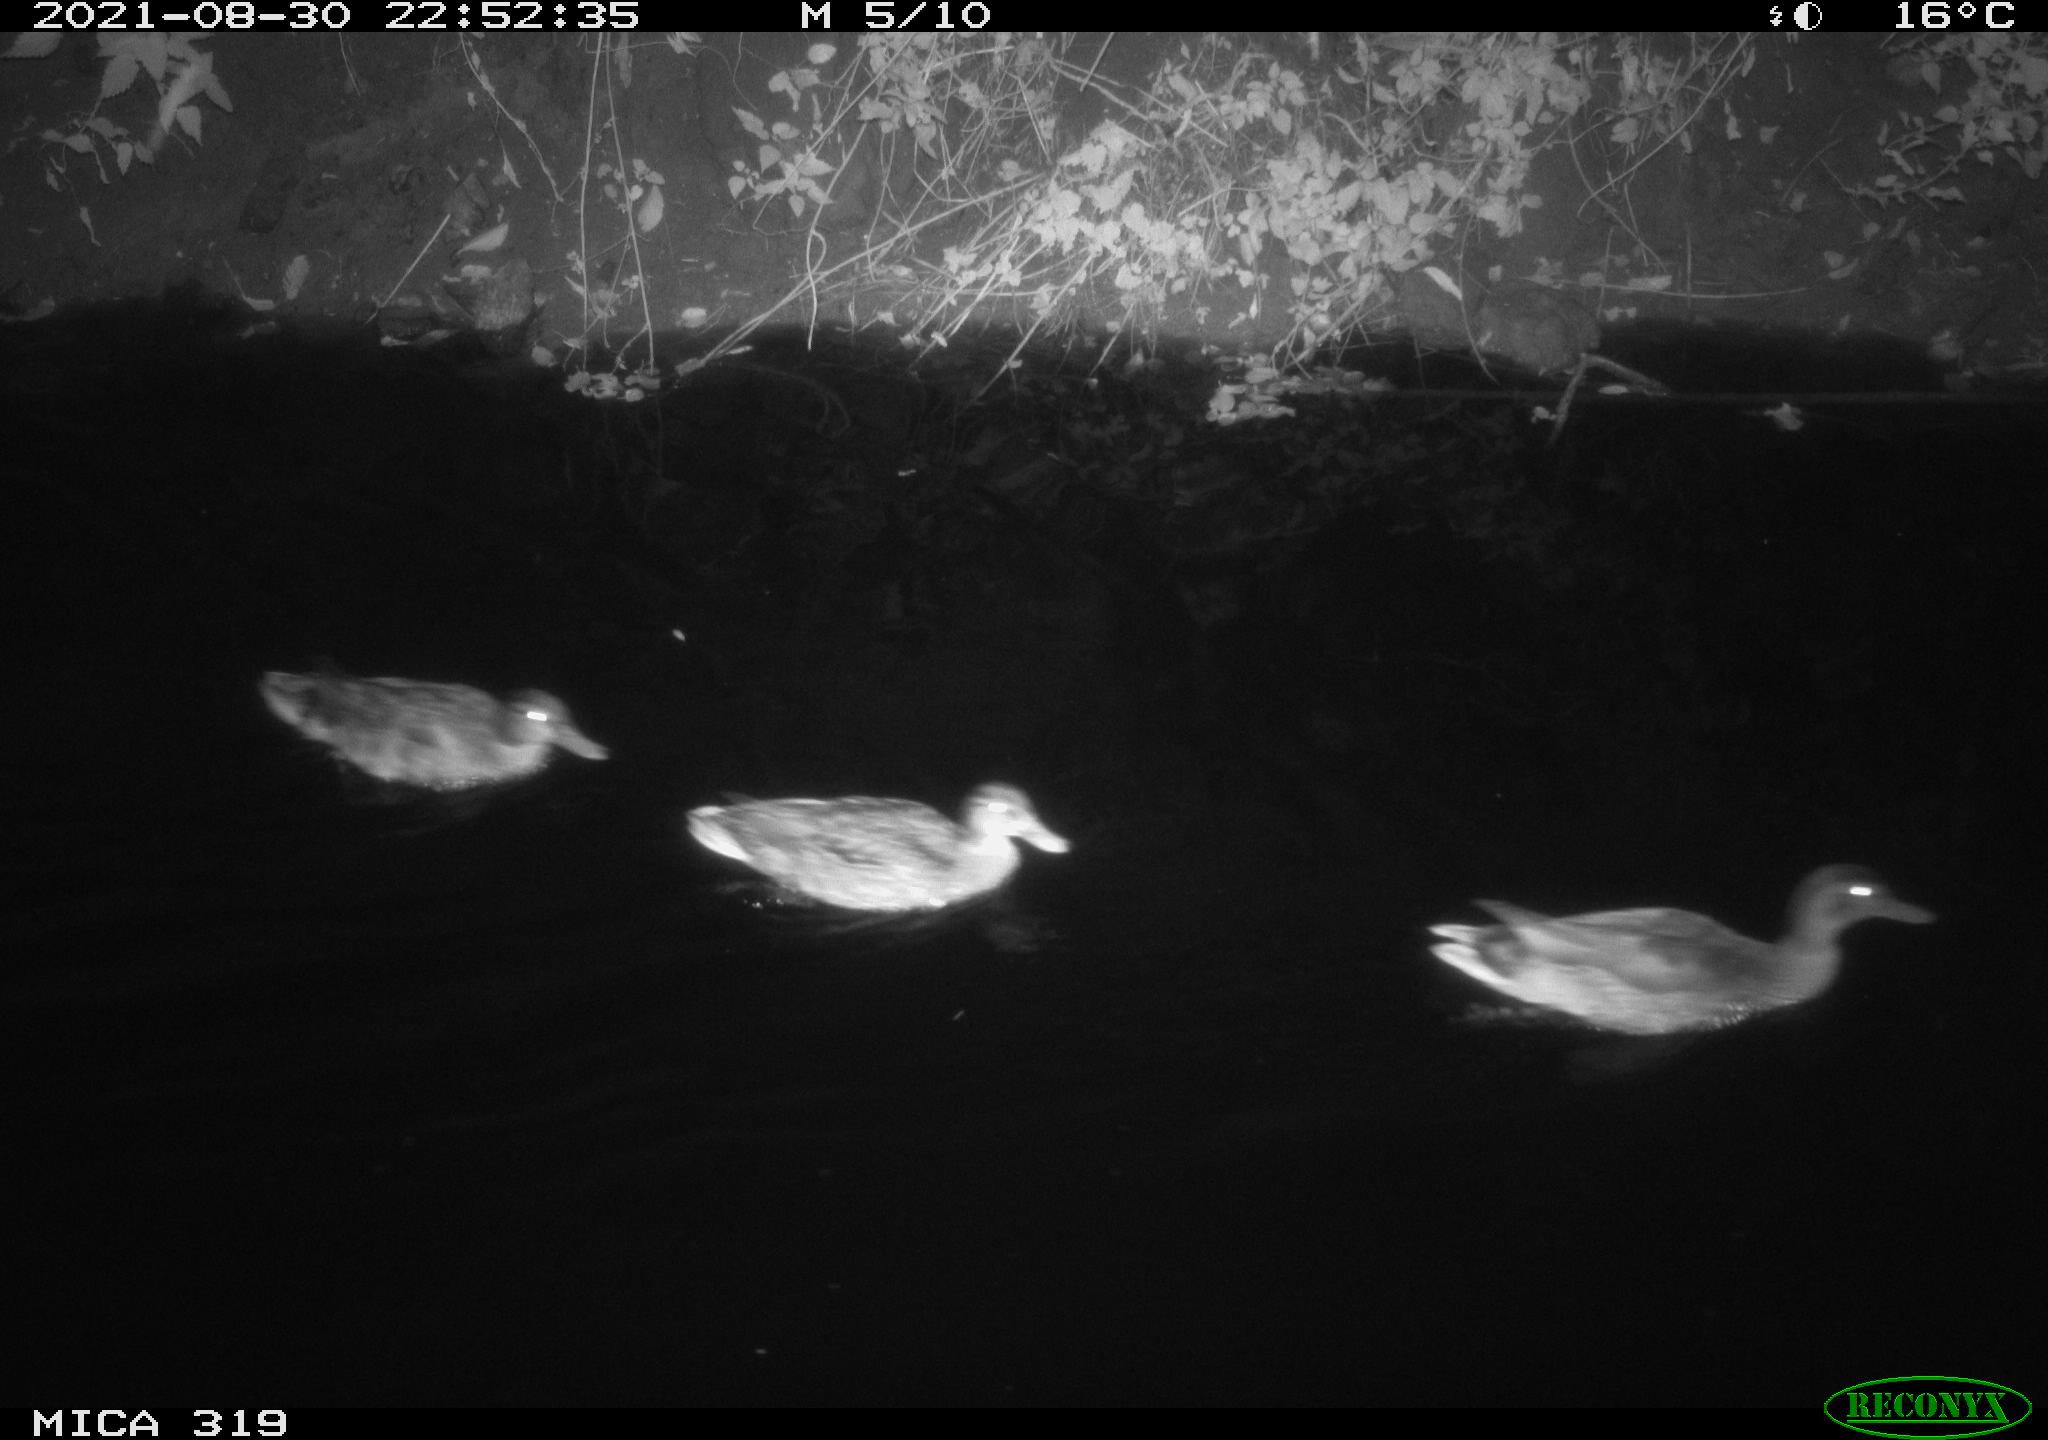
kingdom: Animalia
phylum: Chordata
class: Aves
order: Anseriformes
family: Anatidae
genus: Anas
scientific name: Anas platyrhynchos
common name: Mallard
